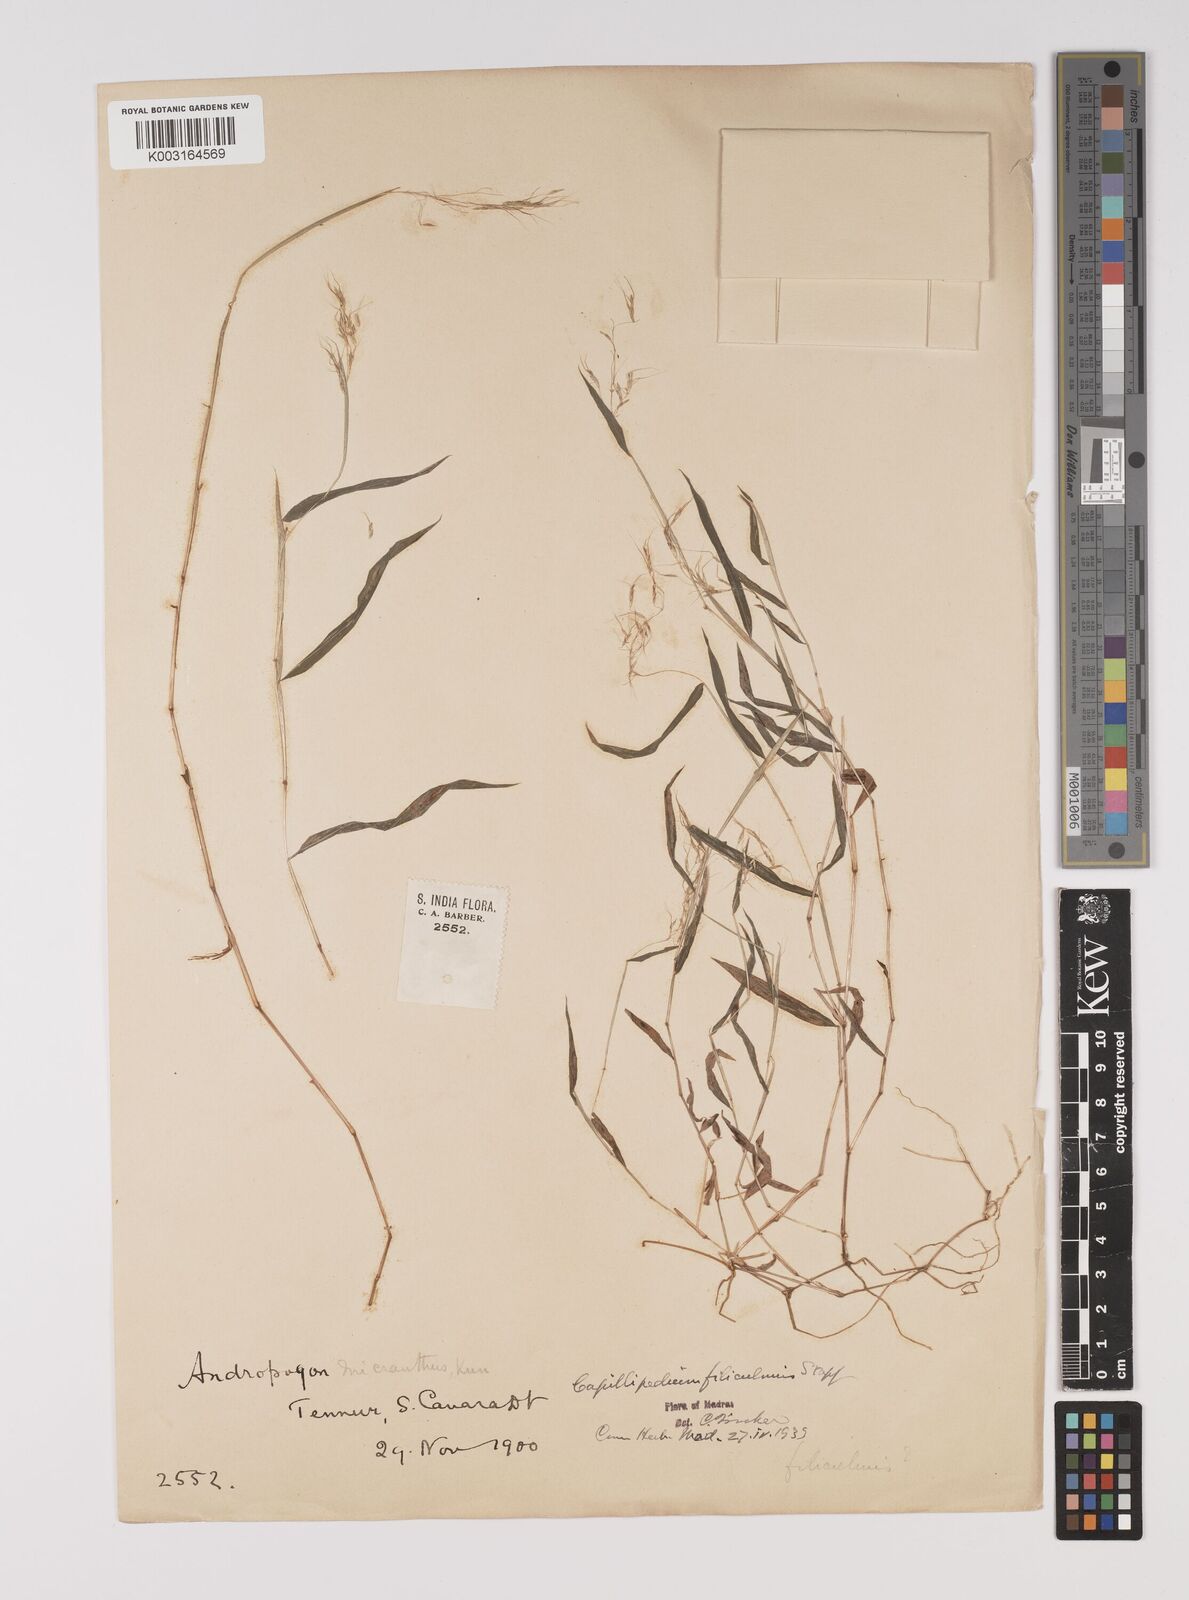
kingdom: Plantae
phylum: Tracheophyta
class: Liliopsida
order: Poales
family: Poaceae
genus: Capillipedium
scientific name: Capillipedium filiculme
